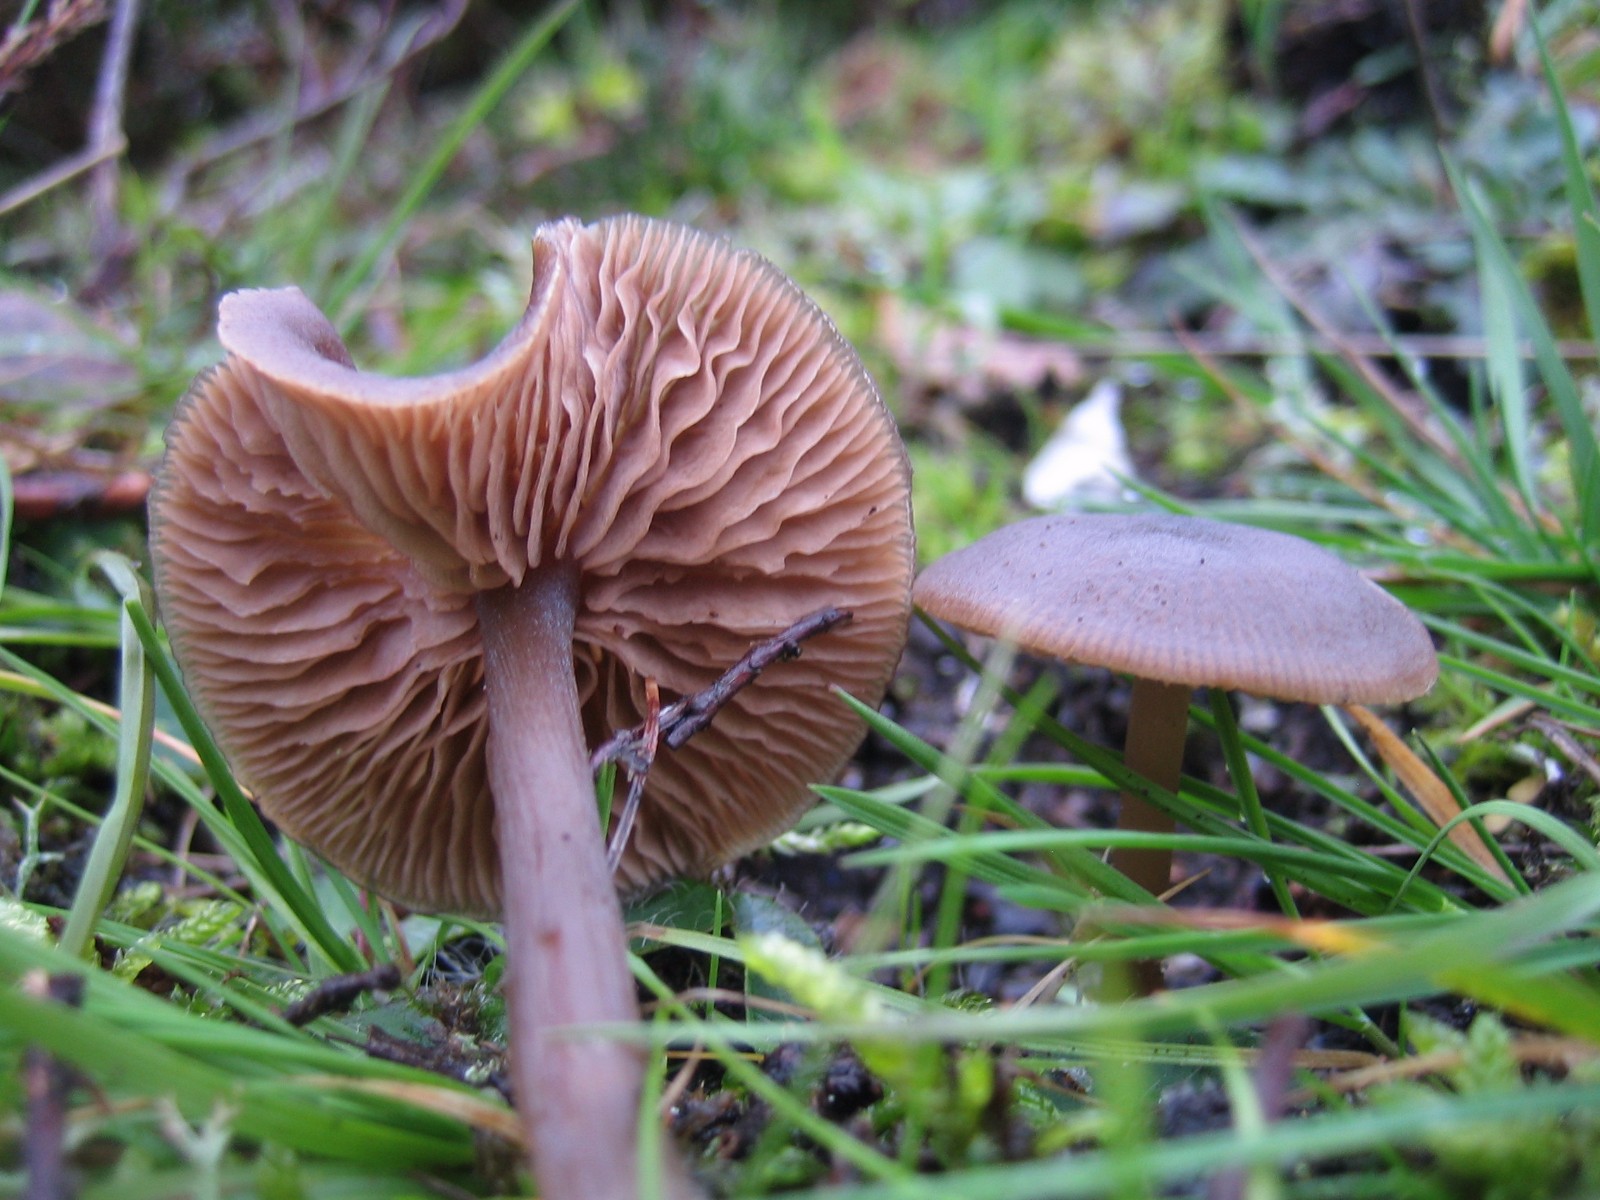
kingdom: Fungi
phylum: Basidiomycota
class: Agaricomycetes
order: Agaricales
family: Entolomataceae
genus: Entoloma
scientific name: Entoloma
